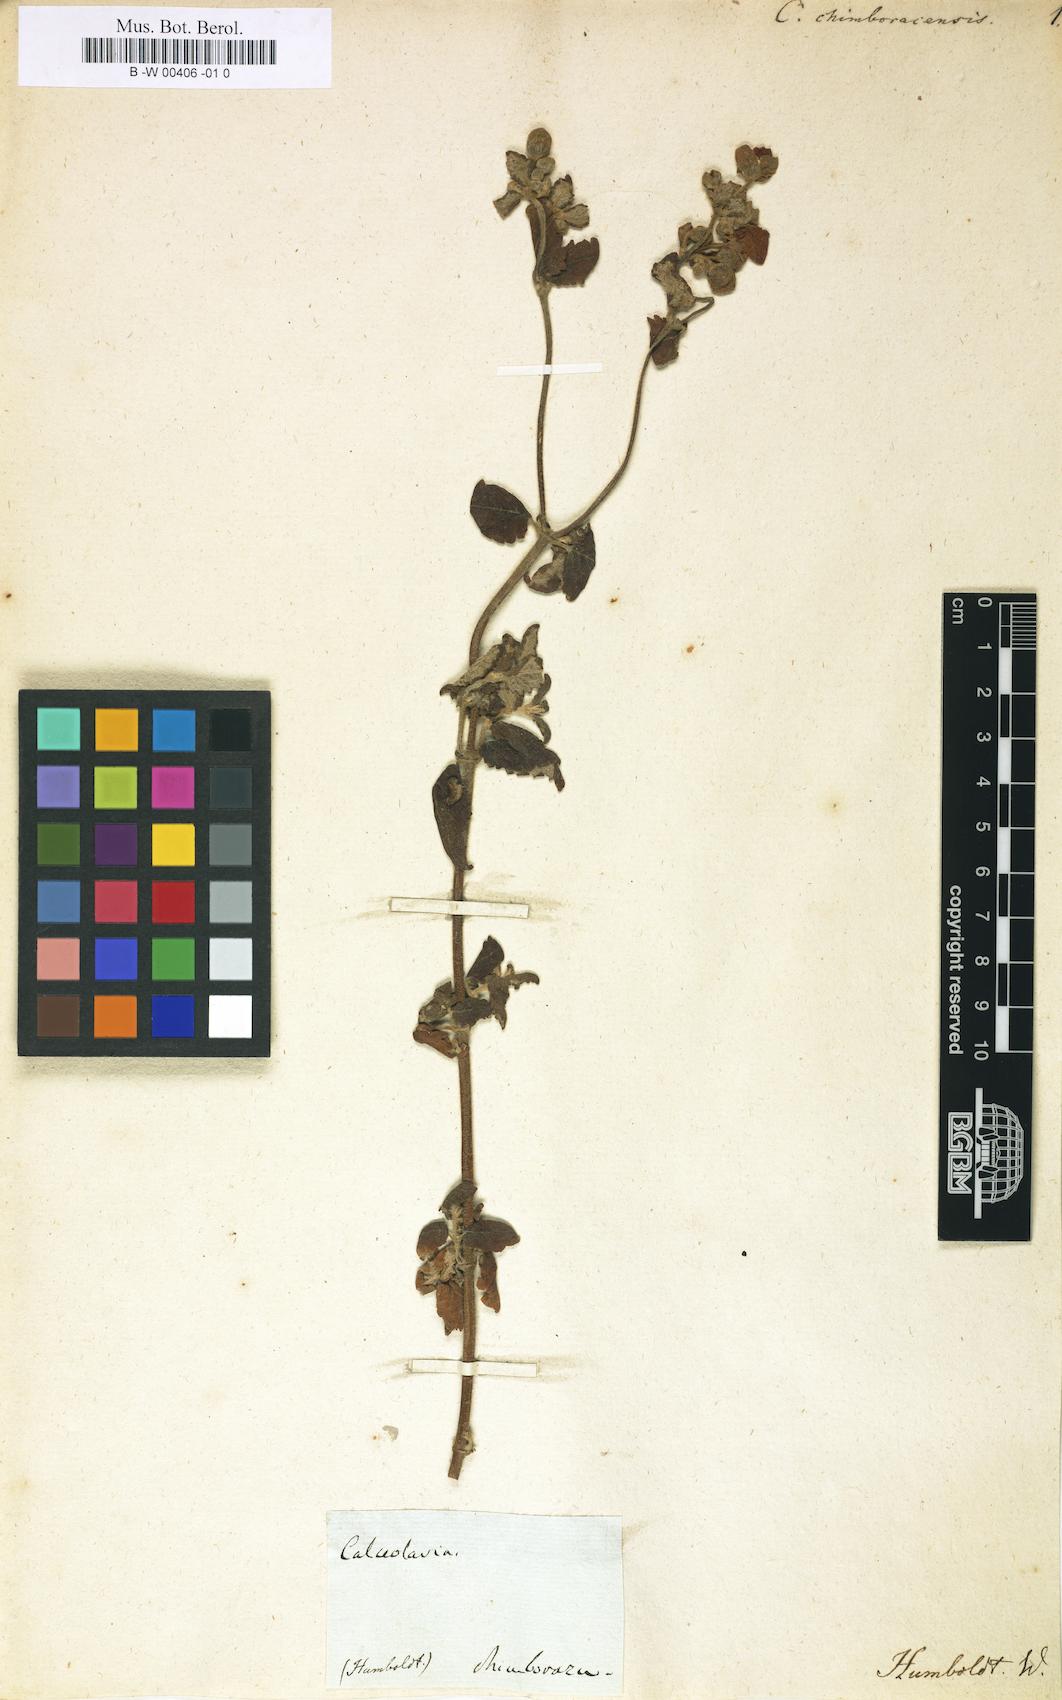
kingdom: Plantae
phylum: Tracheophyta
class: Magnoliopsida
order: Lamiales
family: Calceolariaceae
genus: Calceolaria
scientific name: Calceolaria lamiifolia
